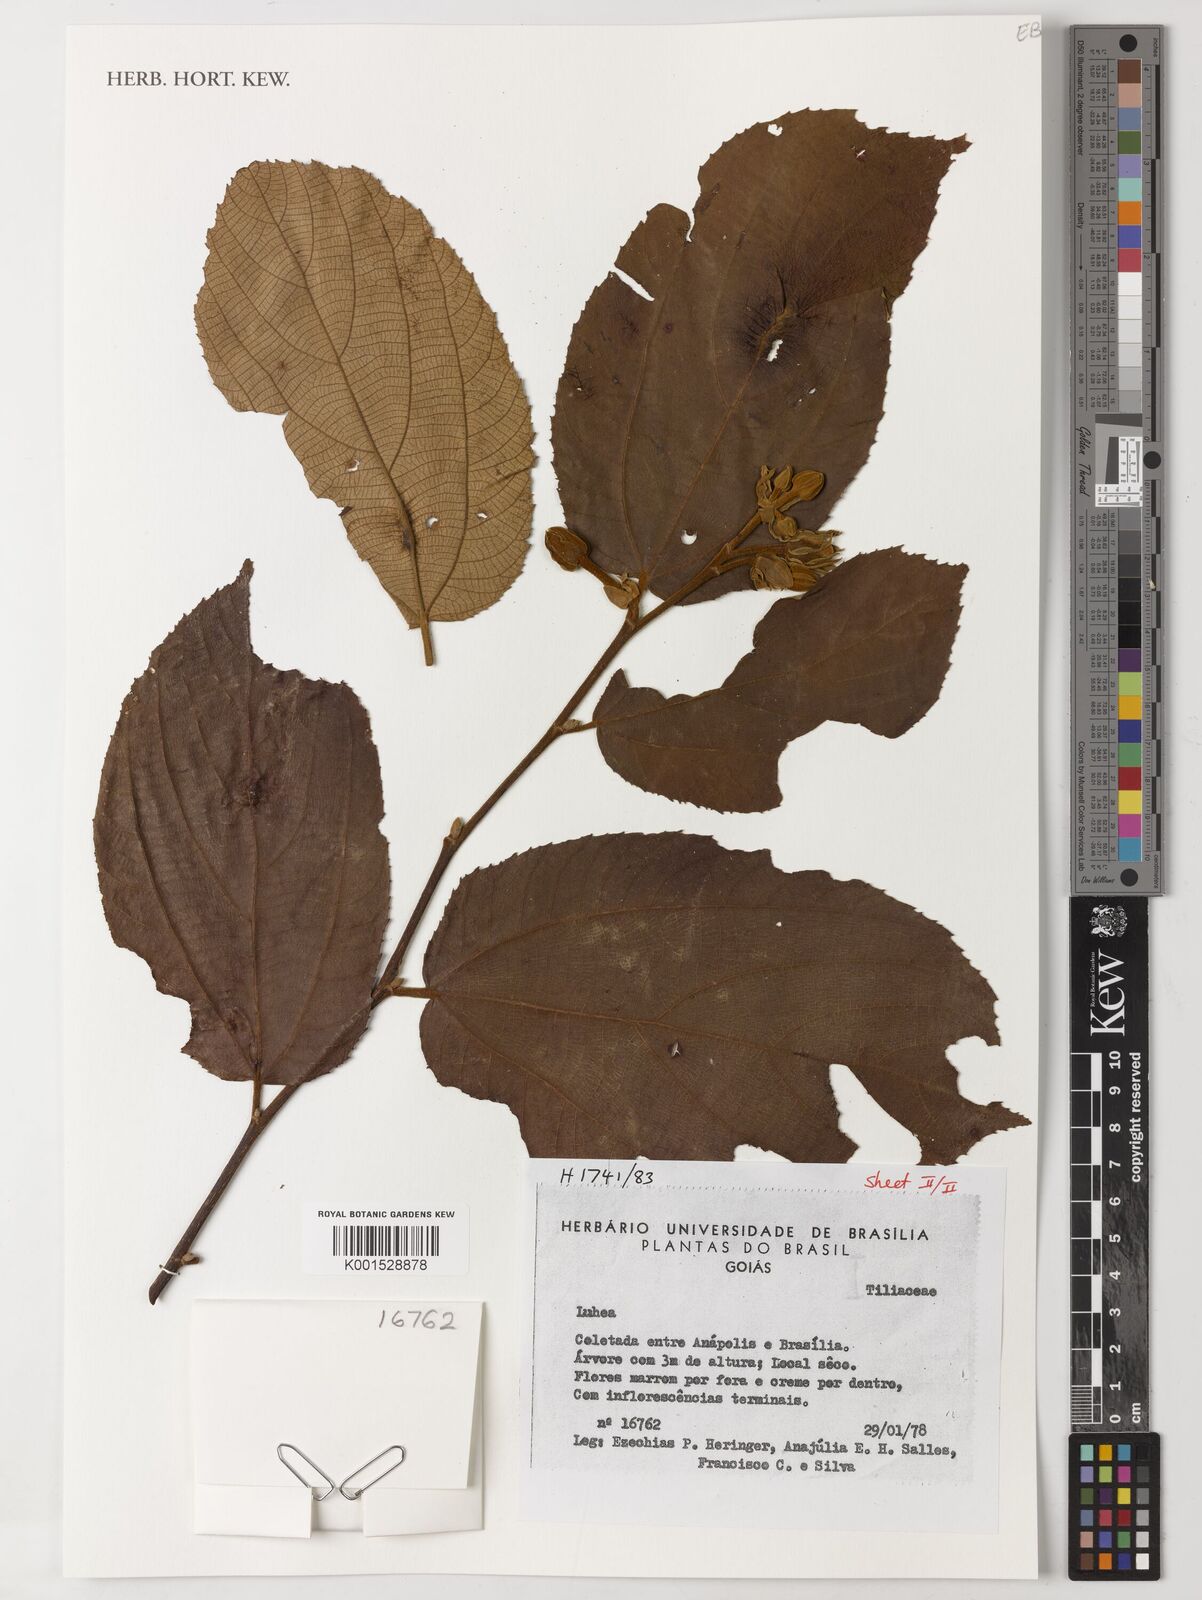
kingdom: Plantae
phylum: Tracheophyta
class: Magnoliopsida
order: Malvales
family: Malvaceae
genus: Luehea
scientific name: Luehea
